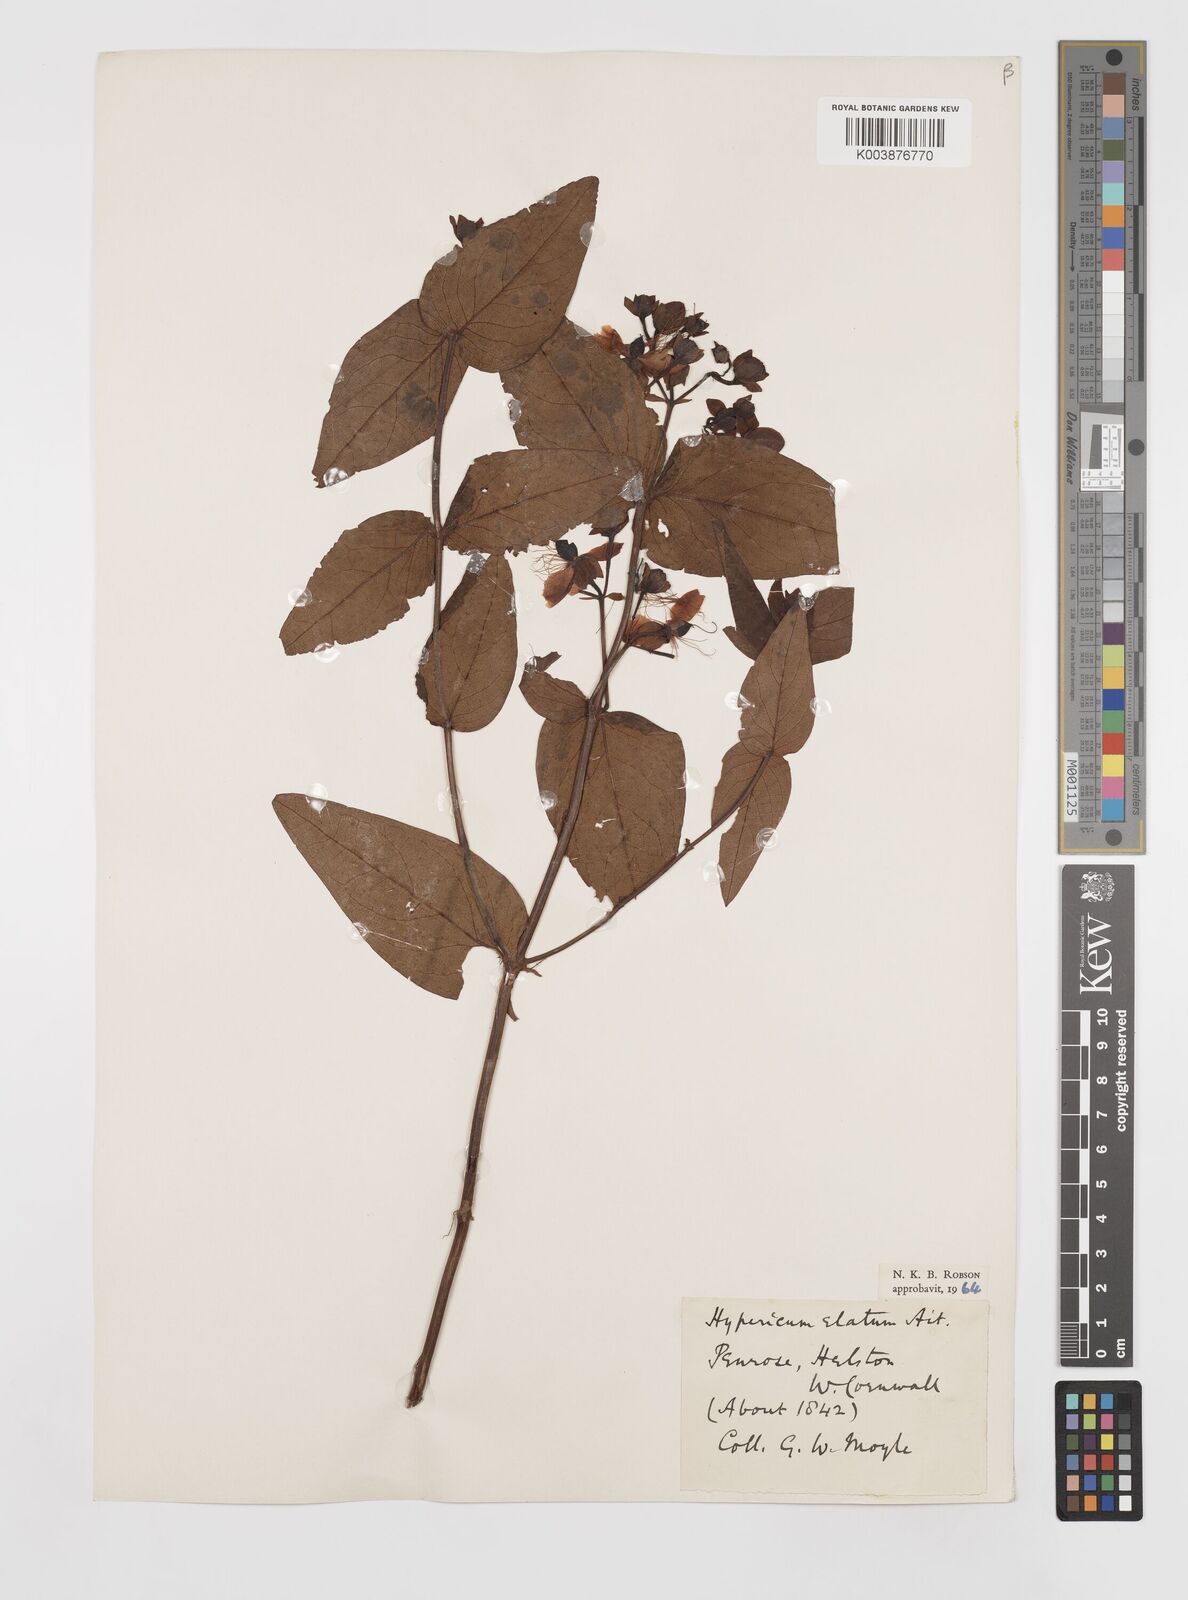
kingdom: Plantae
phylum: Tracheophyta
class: Magnoliopsida
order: Malpighiales
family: Hypericaceae
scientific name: Hypericaceae
